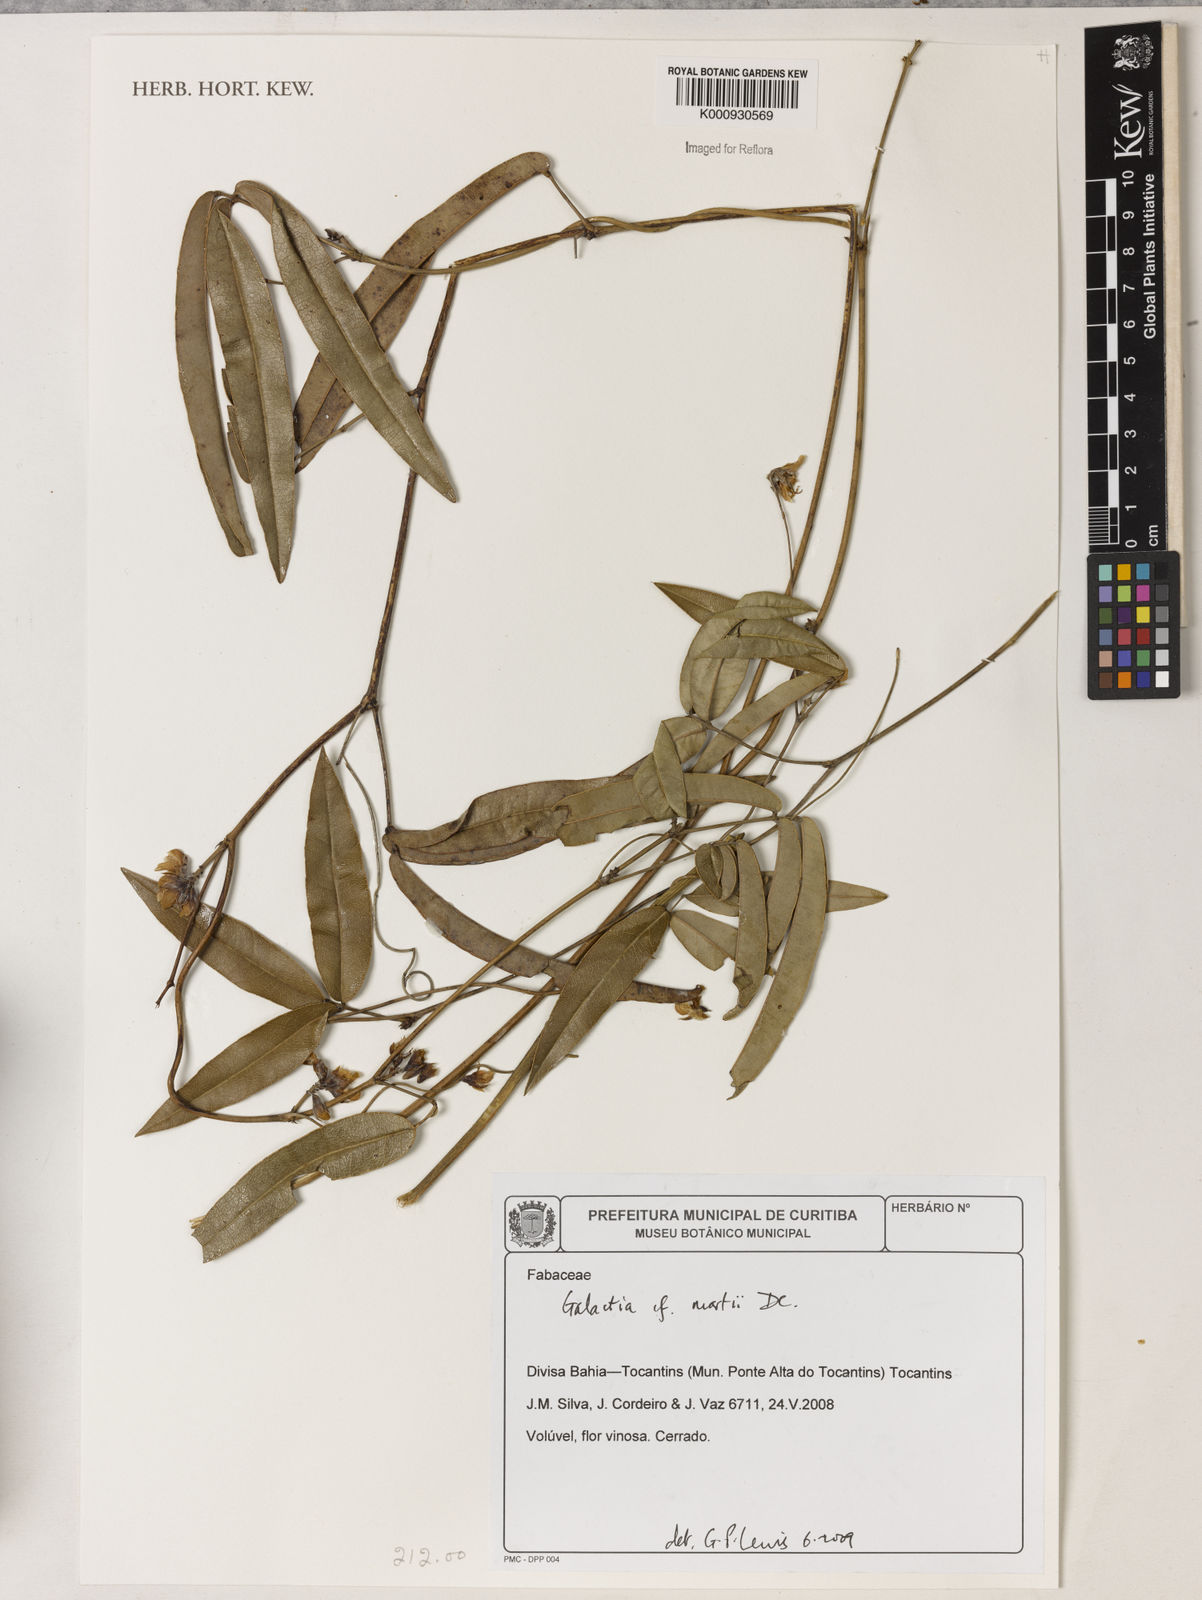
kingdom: Plantae
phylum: Tracheophyta
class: Magnoliopsida
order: Fabales
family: Fabaceae
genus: Betencourtia
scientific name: Betencourtia martii
